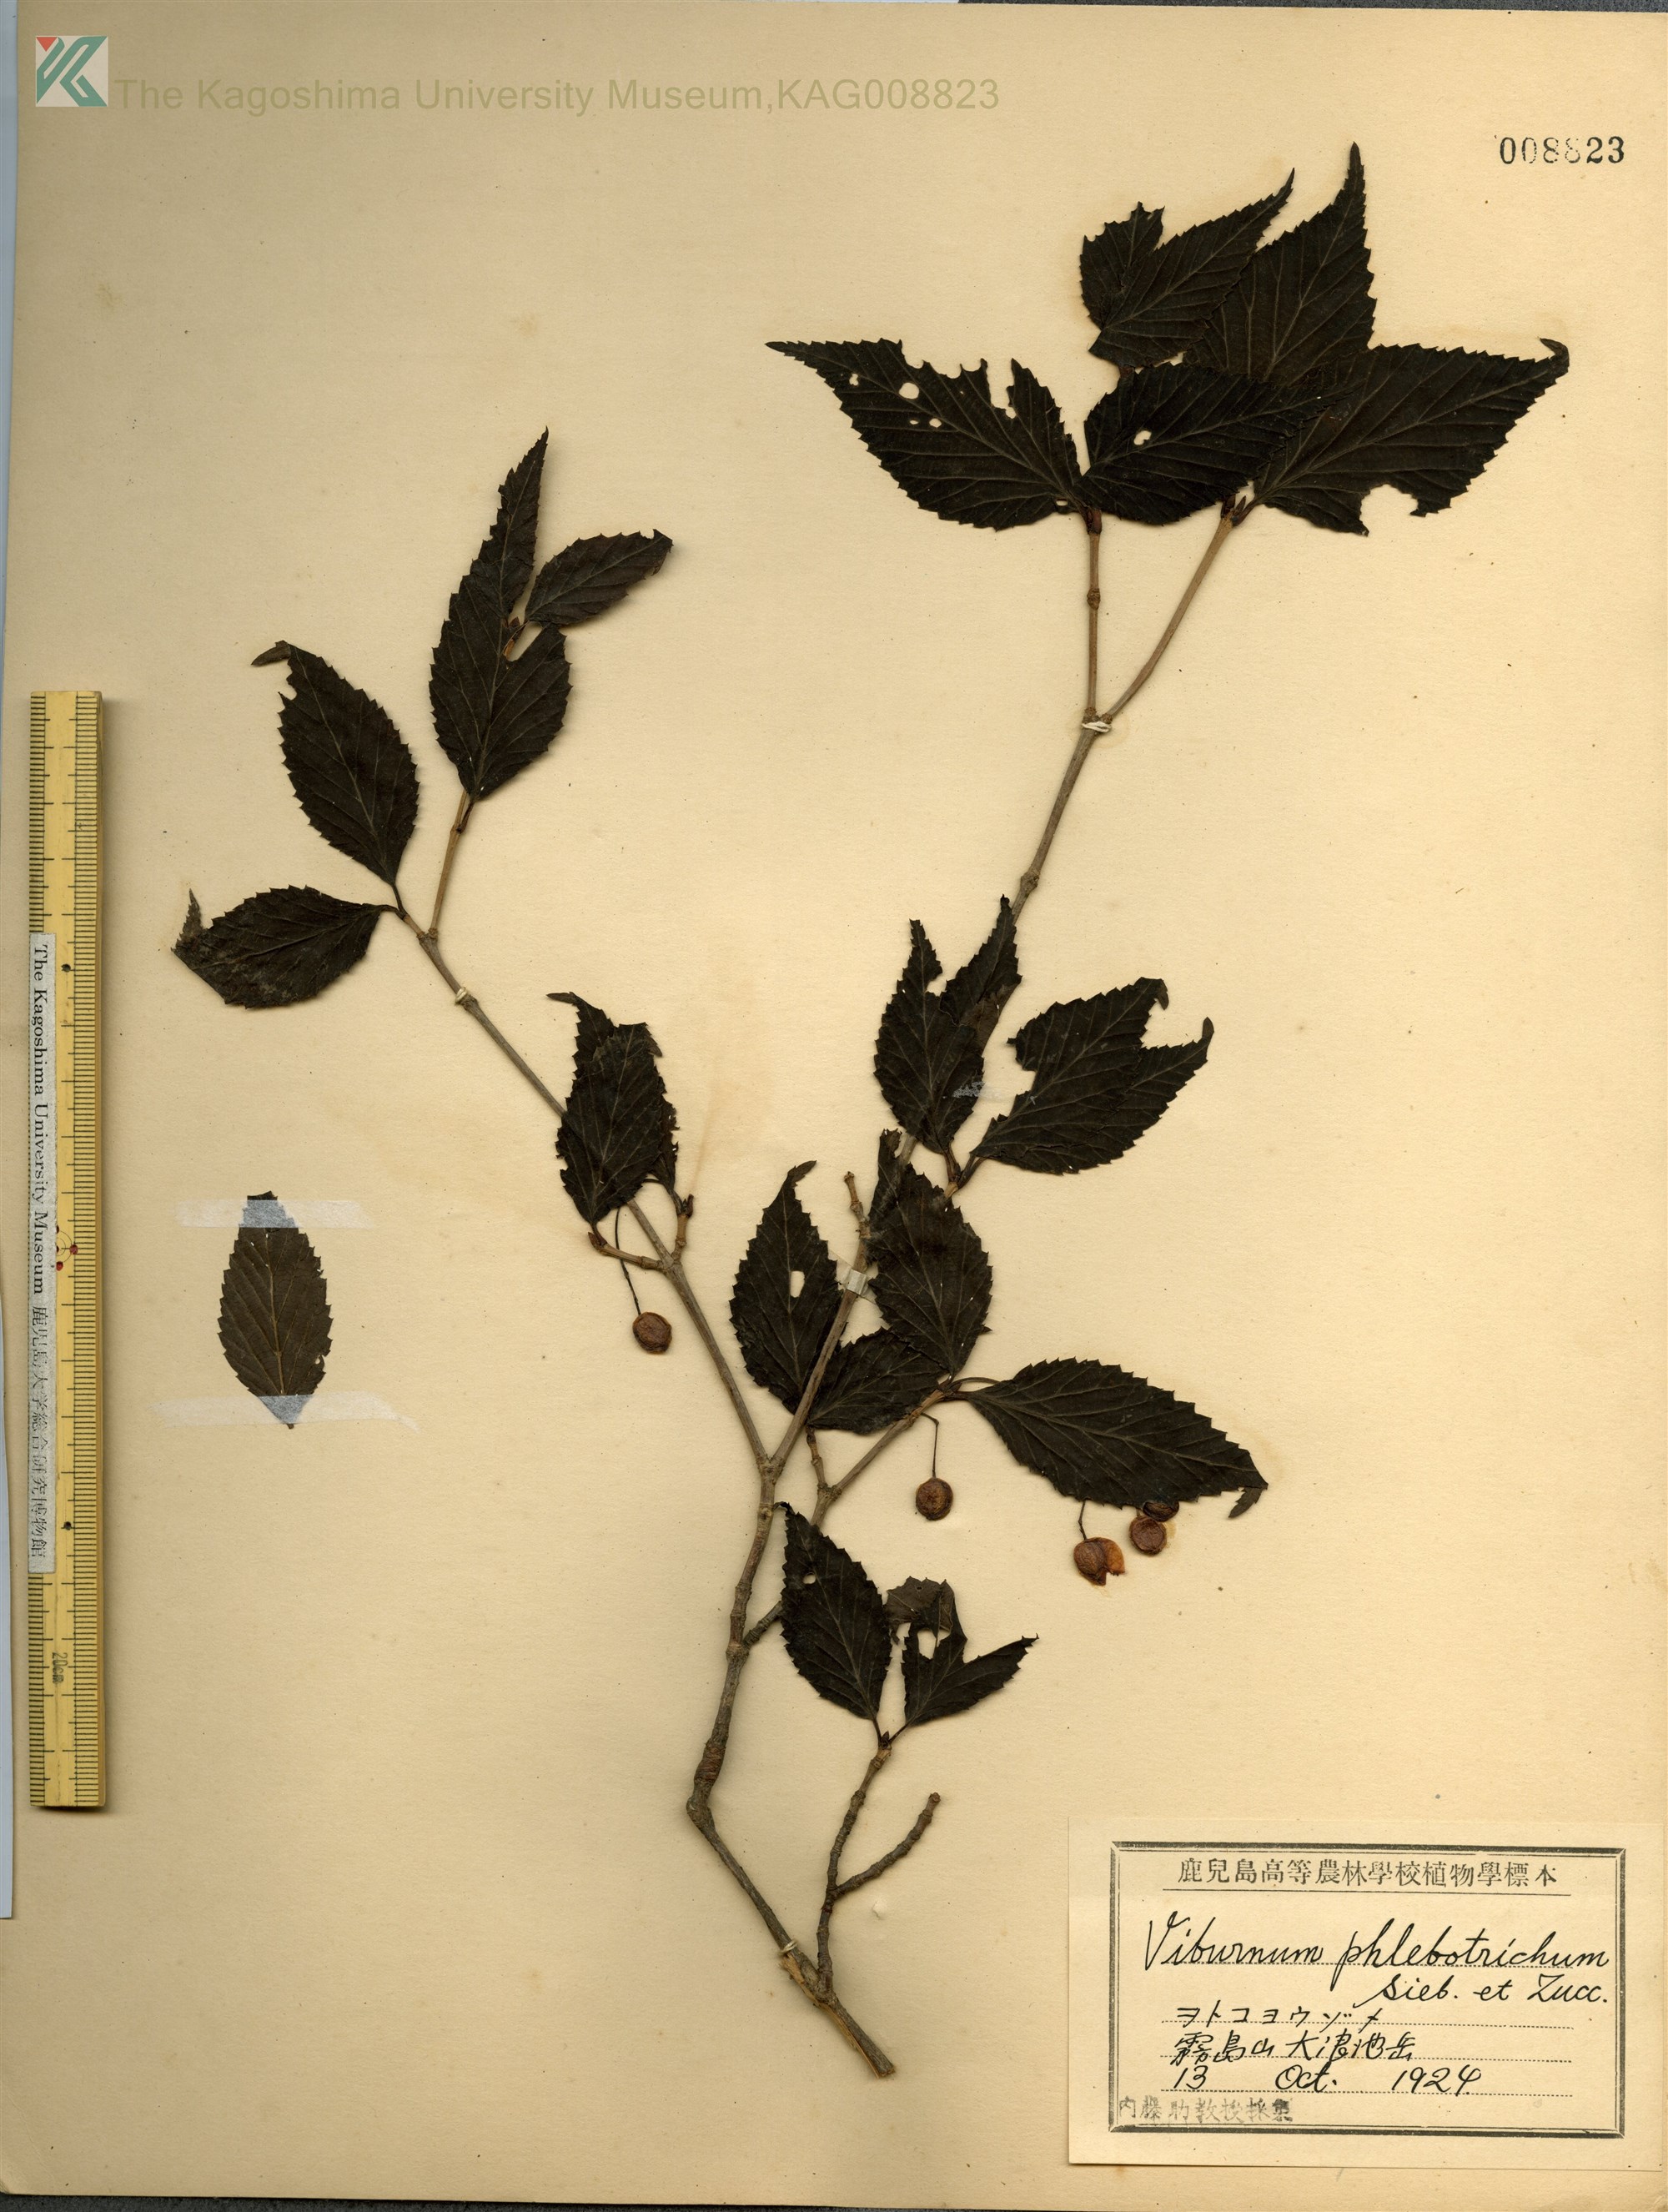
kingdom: Plantae
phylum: Tracheophyta
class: Magnoliopsida
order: Dipsacales
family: Viburnaceae
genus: Viburnum
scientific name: Viburnum phlebotrichum
